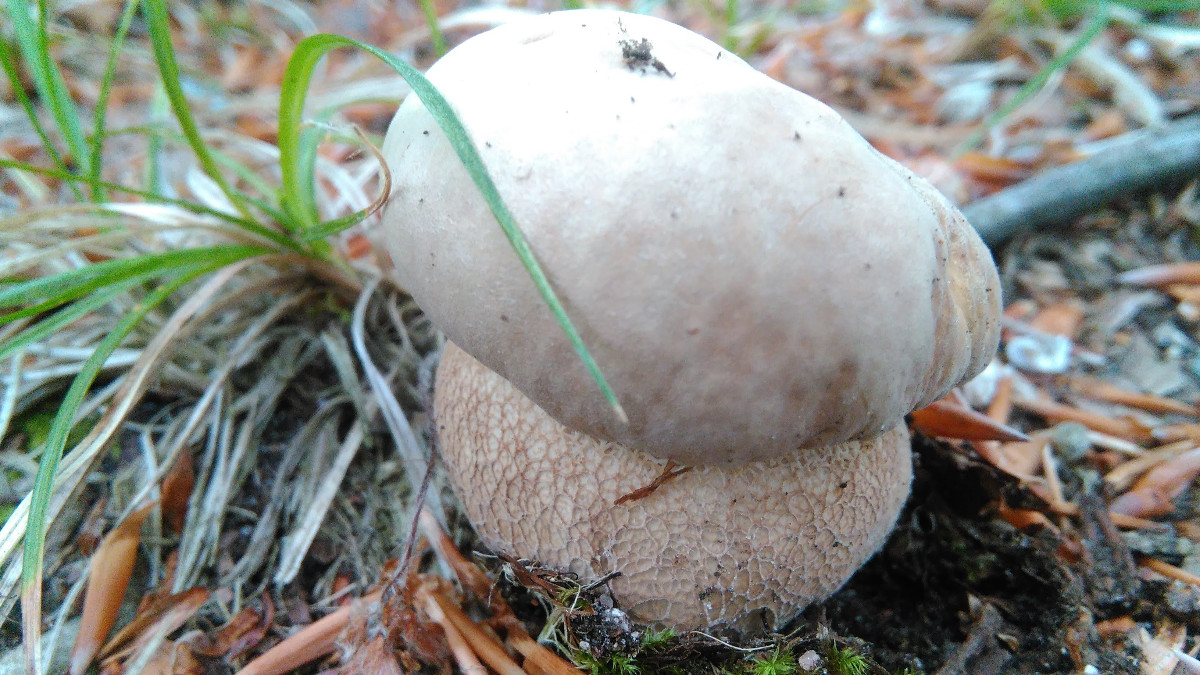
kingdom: Fungi
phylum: Basidiomycota
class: Agaricomycetes
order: Boletales
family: Boletaceae
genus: Boletus
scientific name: Boletus reticulatus
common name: sommer-rørhat
